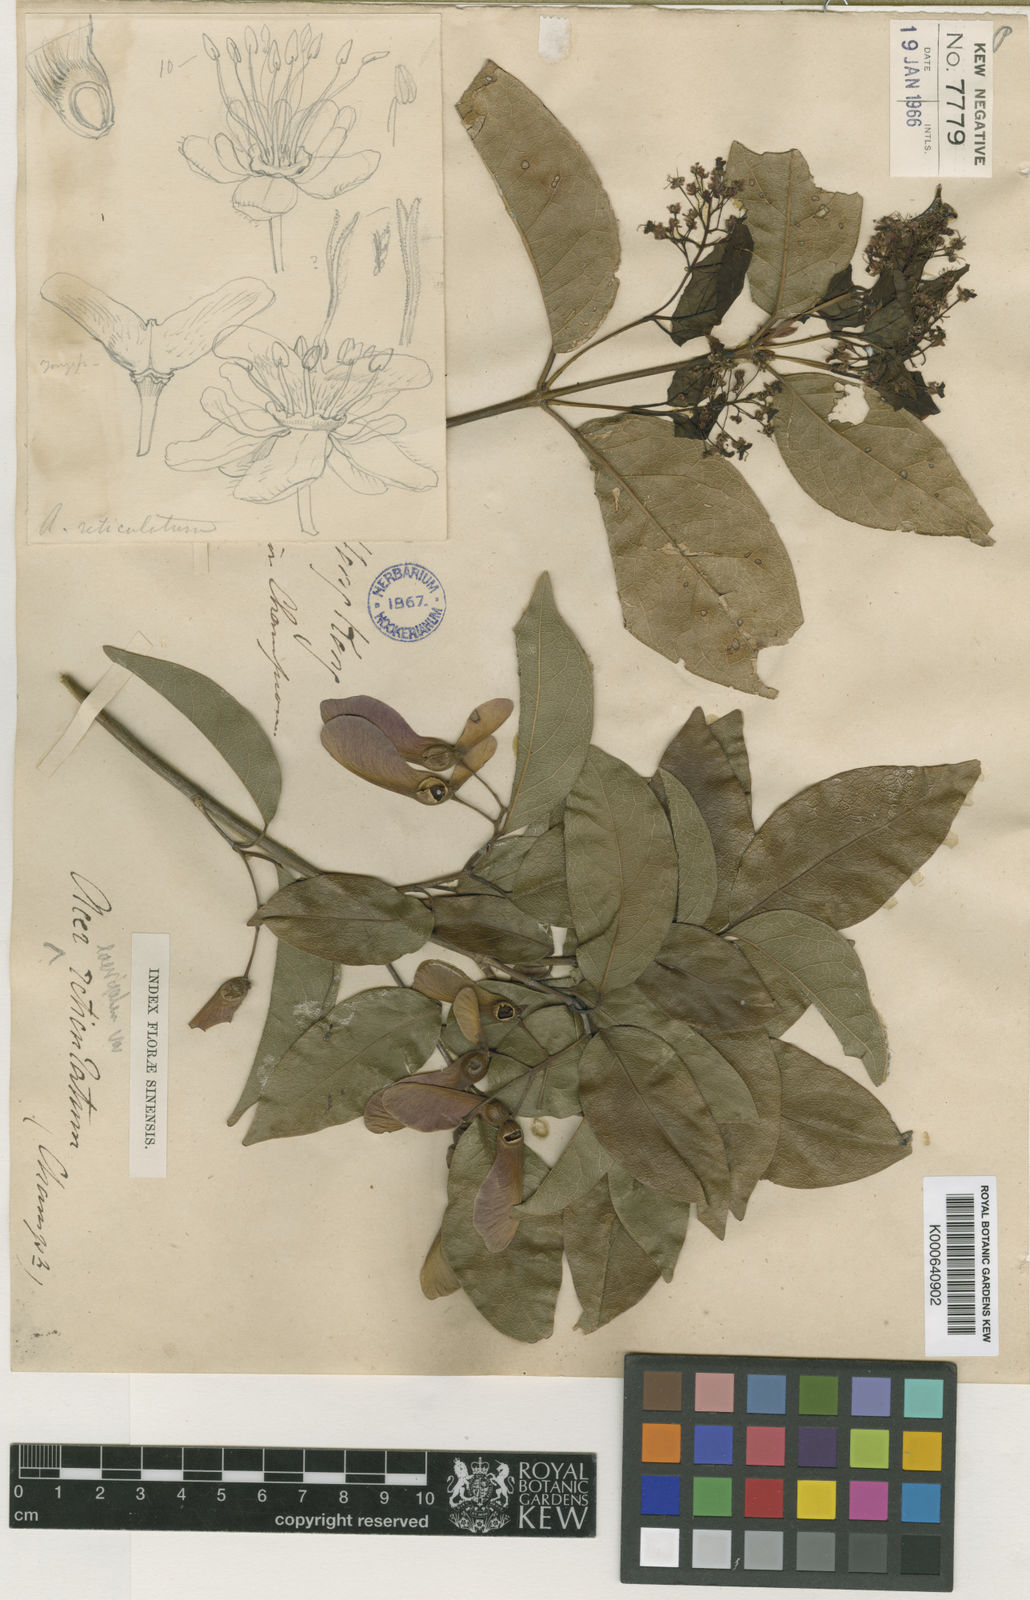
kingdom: Plantae
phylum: Tracheophyta
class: Magnoliopsida
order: Sapindales
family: Sapindaceae
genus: Acer
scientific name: Acer
